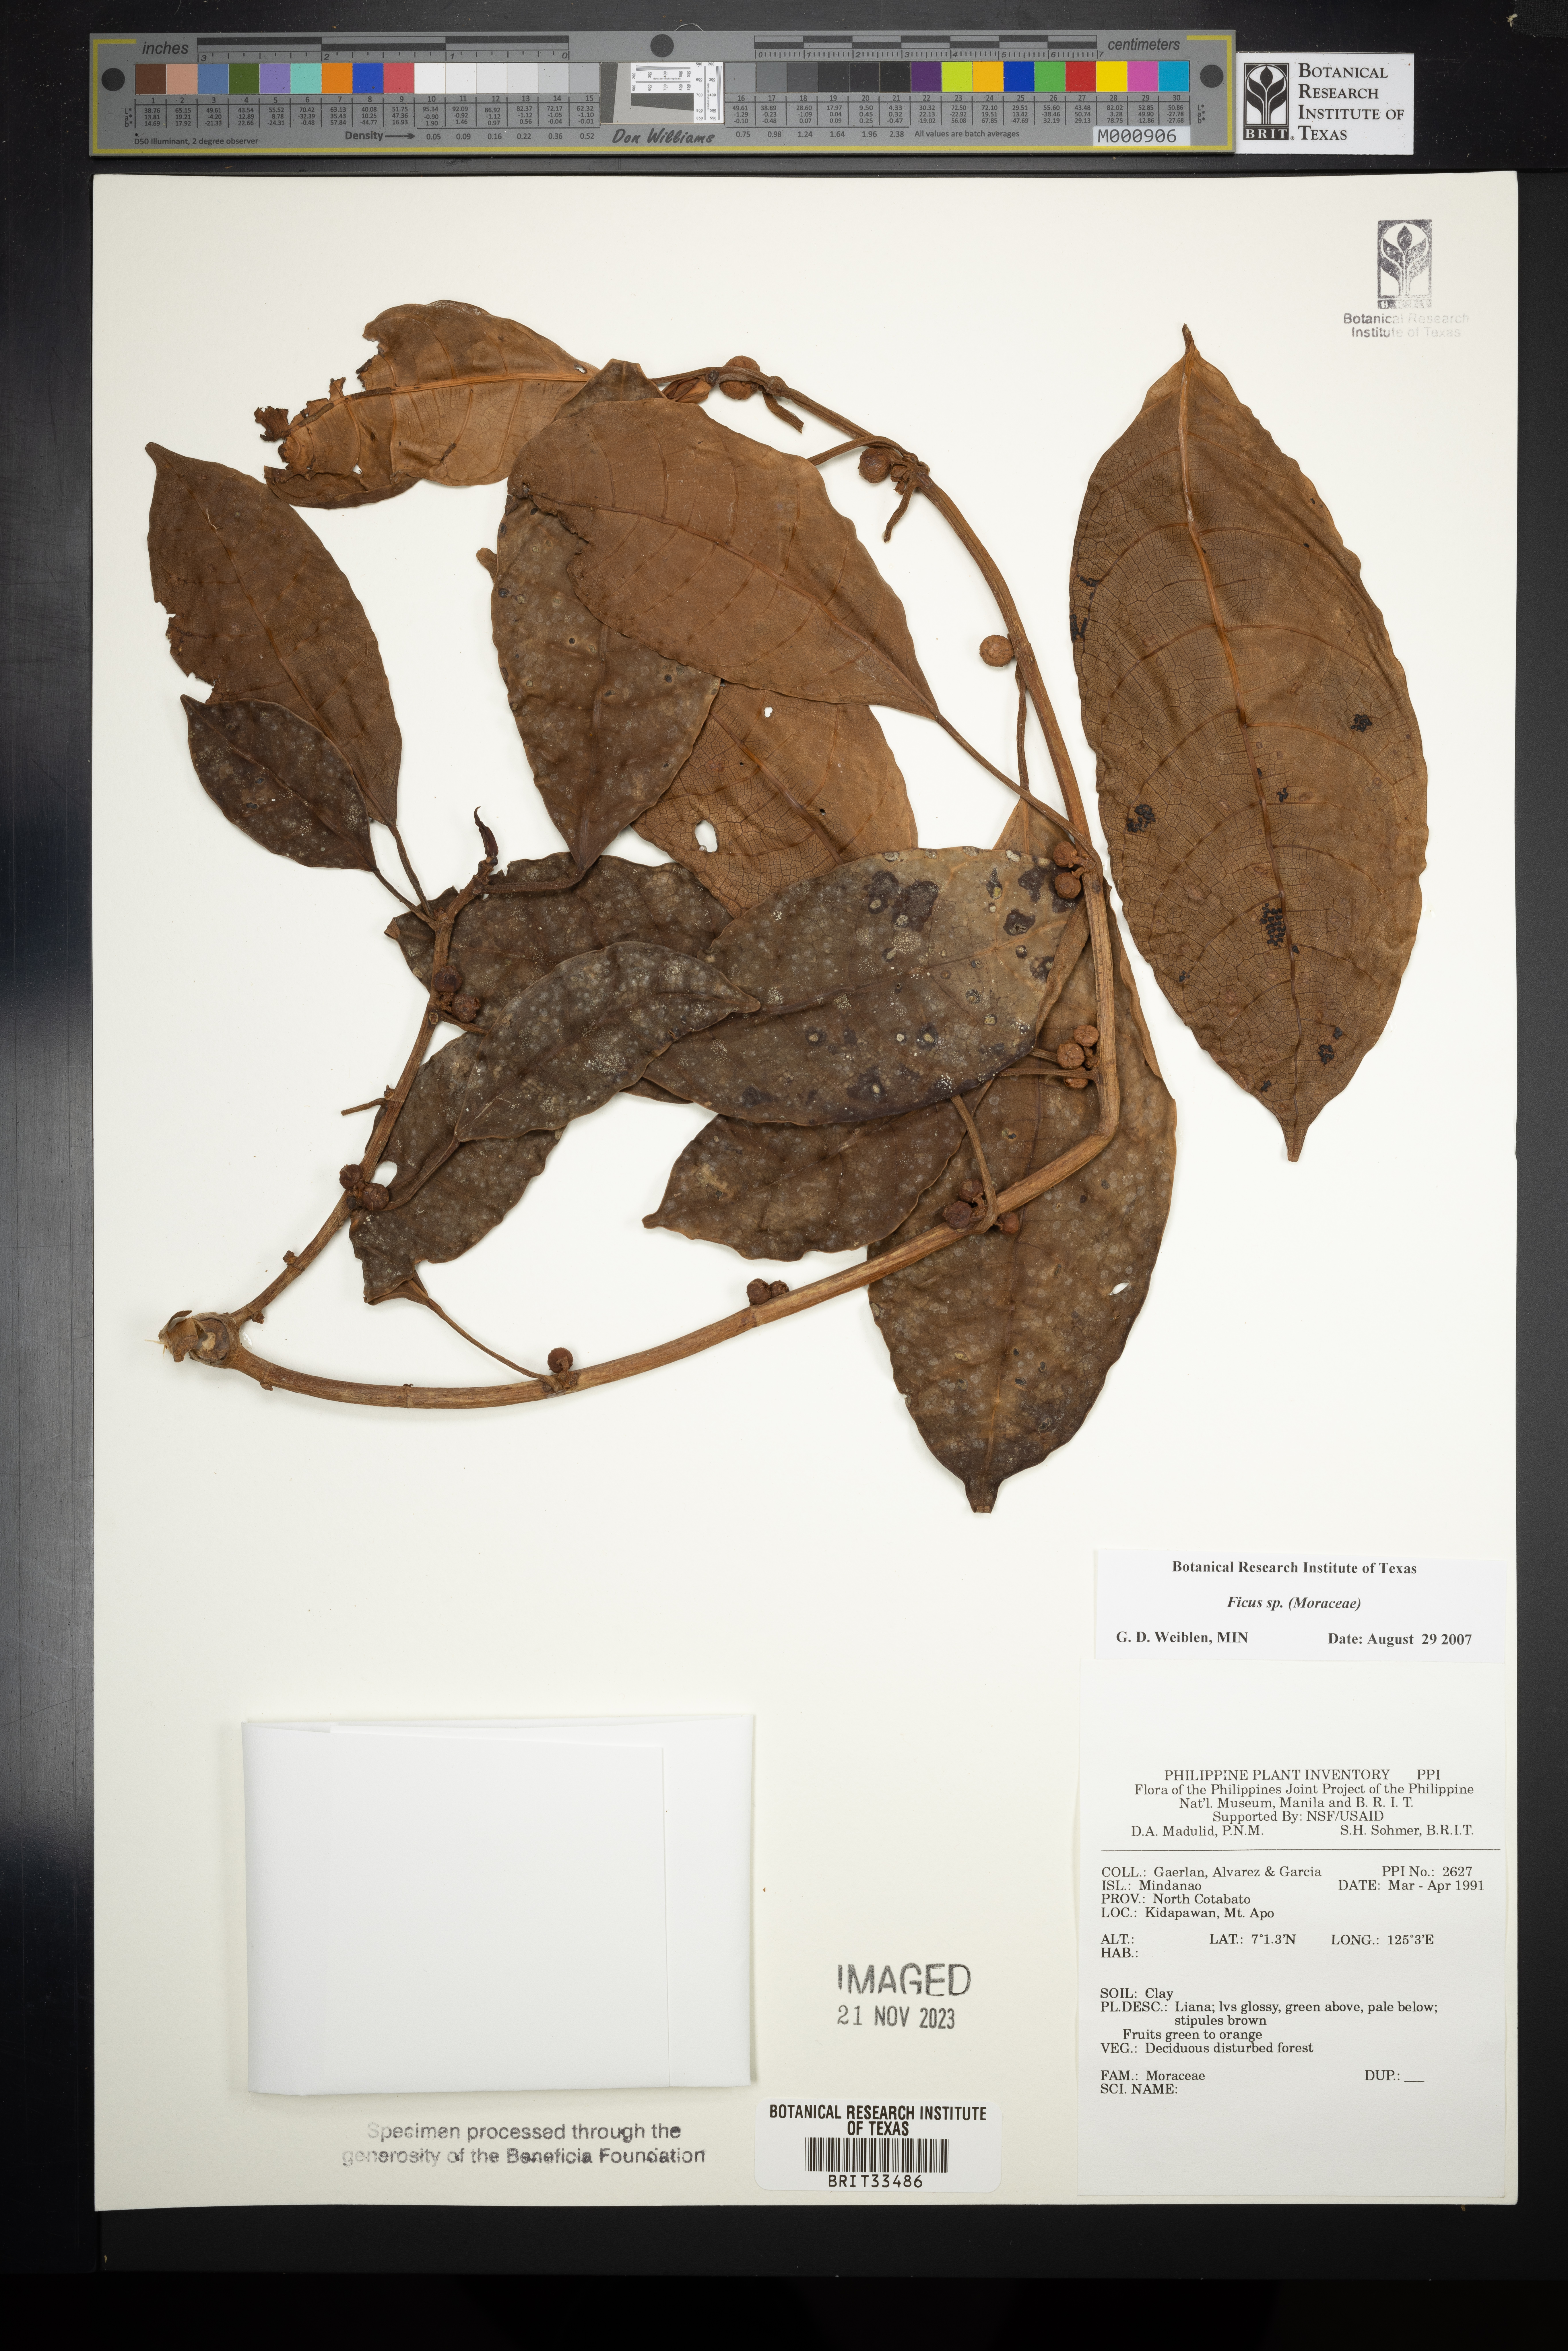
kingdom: Plantae
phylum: Tracheophyta
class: Magnoliopsida
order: Rosales
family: Moraceae
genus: Ficus
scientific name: Ficus
